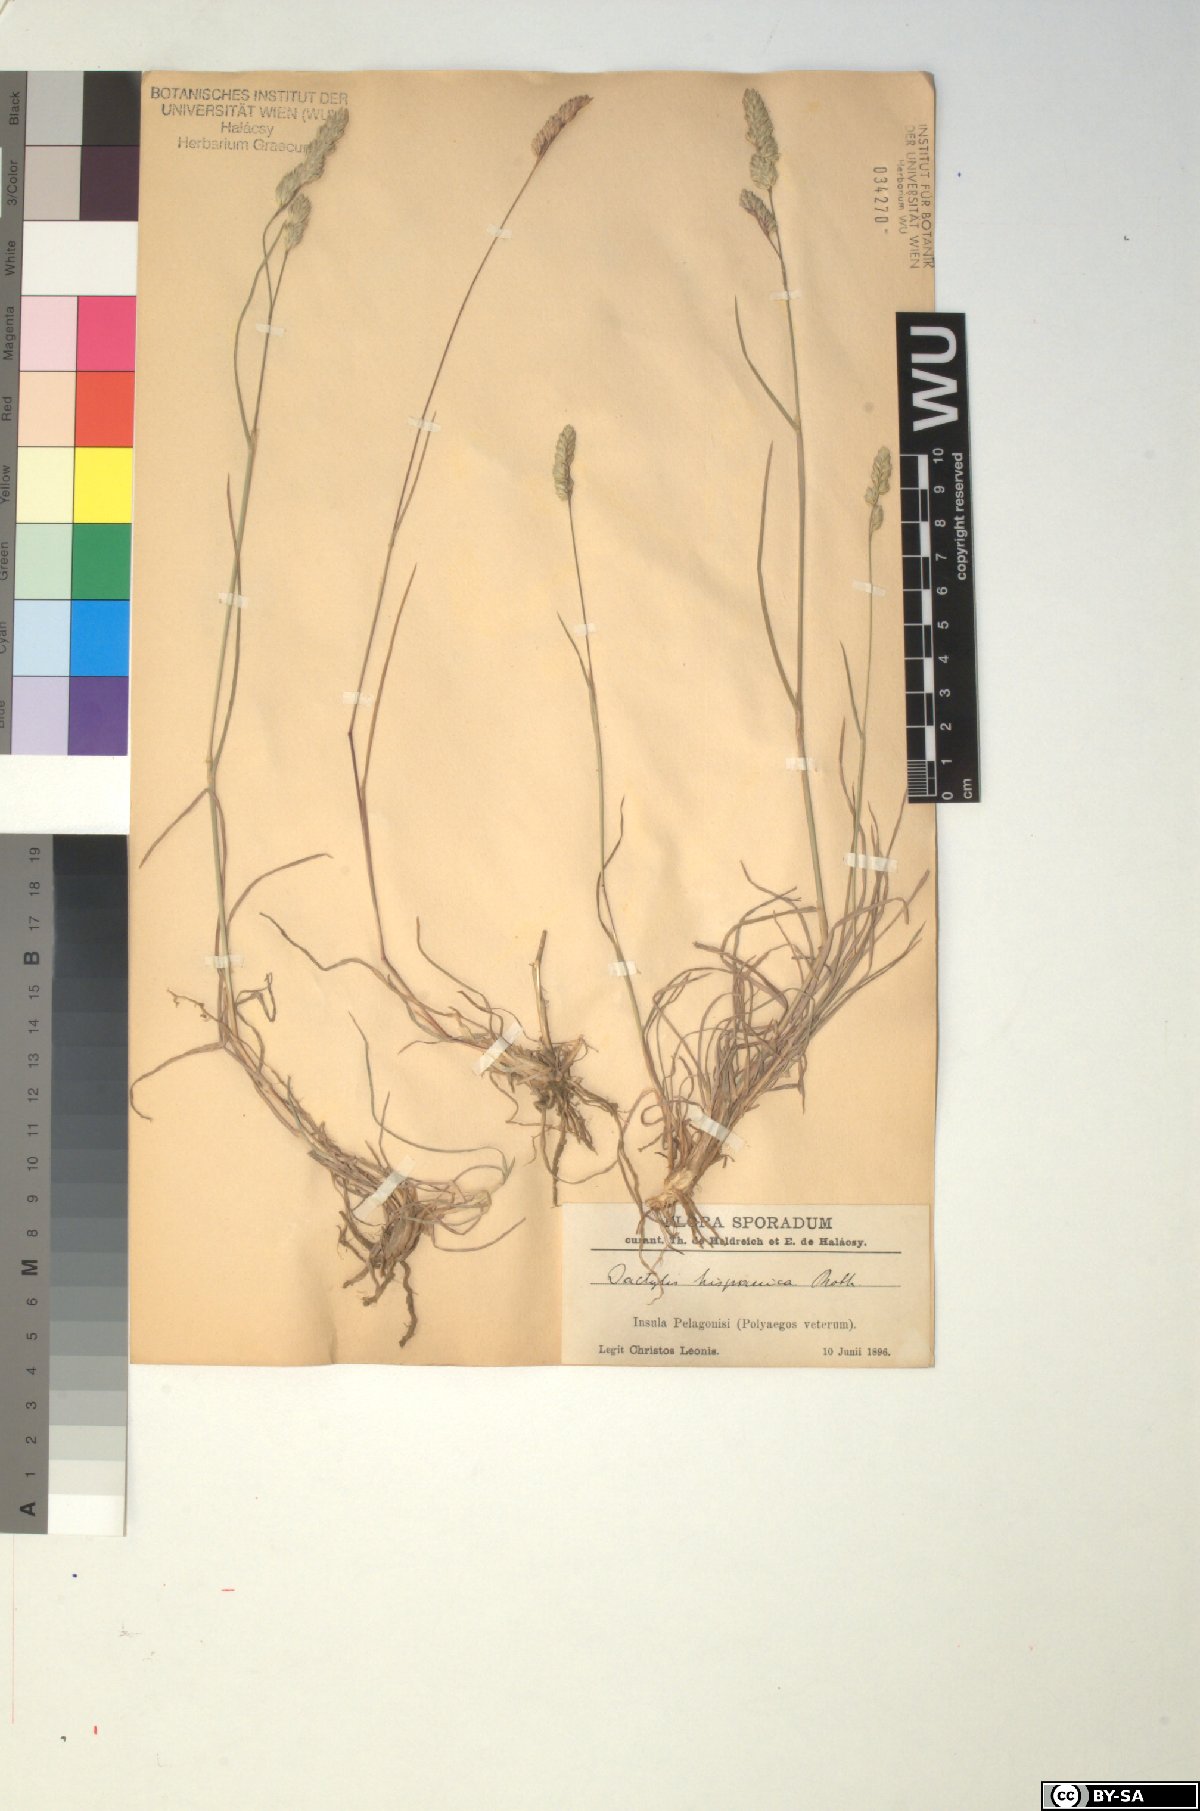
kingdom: Plantae
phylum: Tracheophyta
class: Liliopsida
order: Poales
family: Poaceae
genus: Dactylis
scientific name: Dactylis glomerata
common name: Orchardgrass
